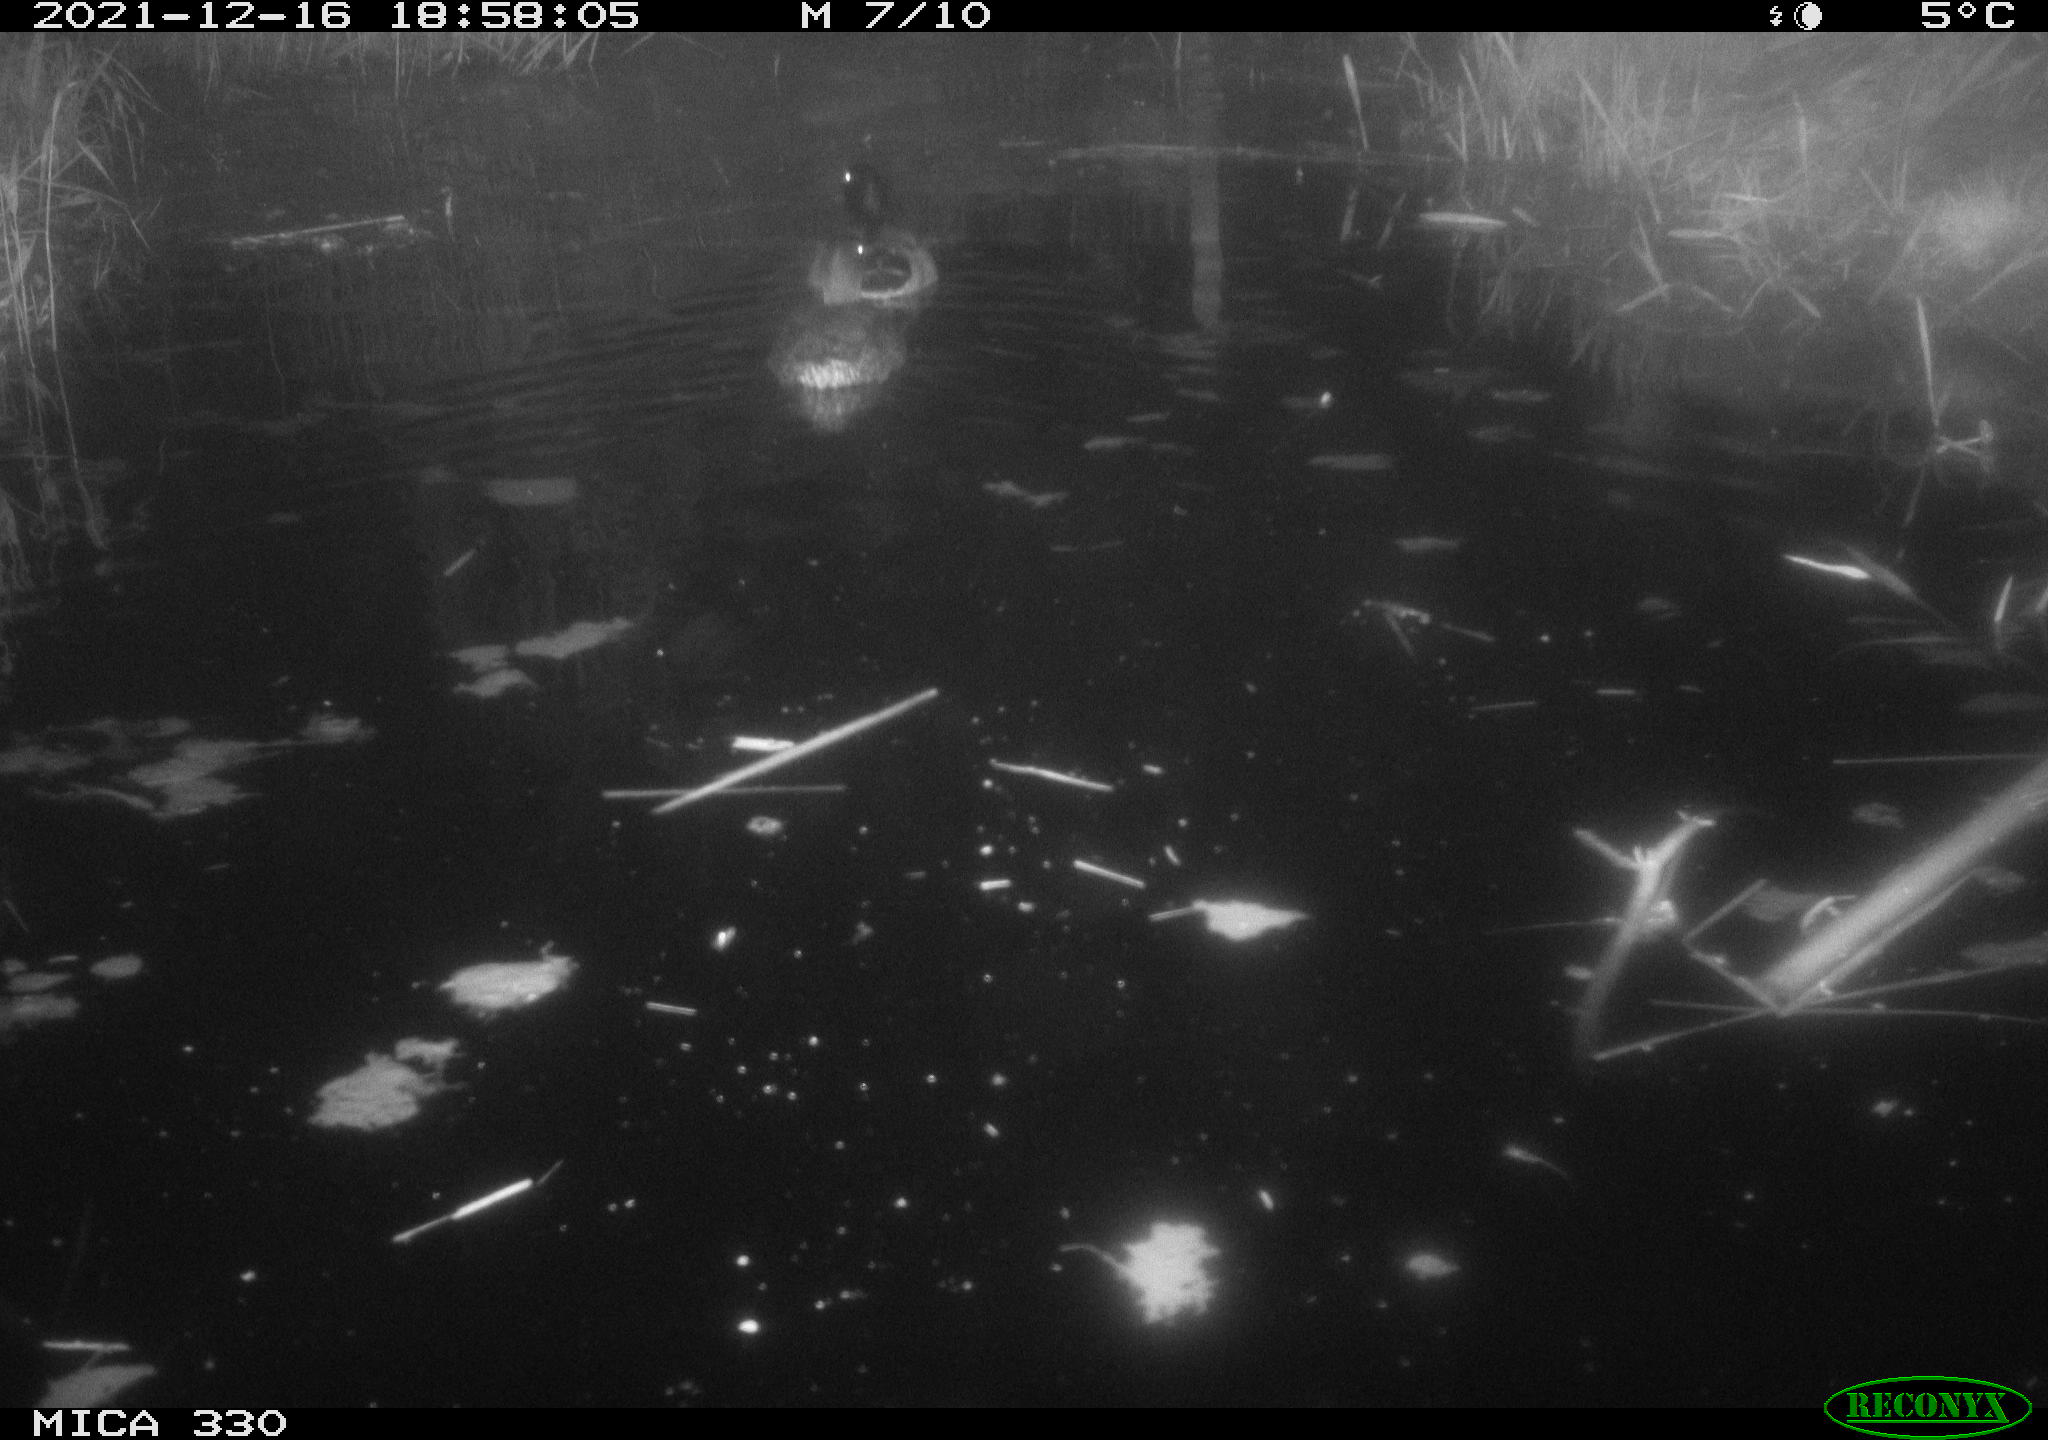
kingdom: Animalia
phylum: Chordata
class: Aves
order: Anseriformes
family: Anatidae
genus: Anas
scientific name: Anas platyrhynchos
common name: Mallard
